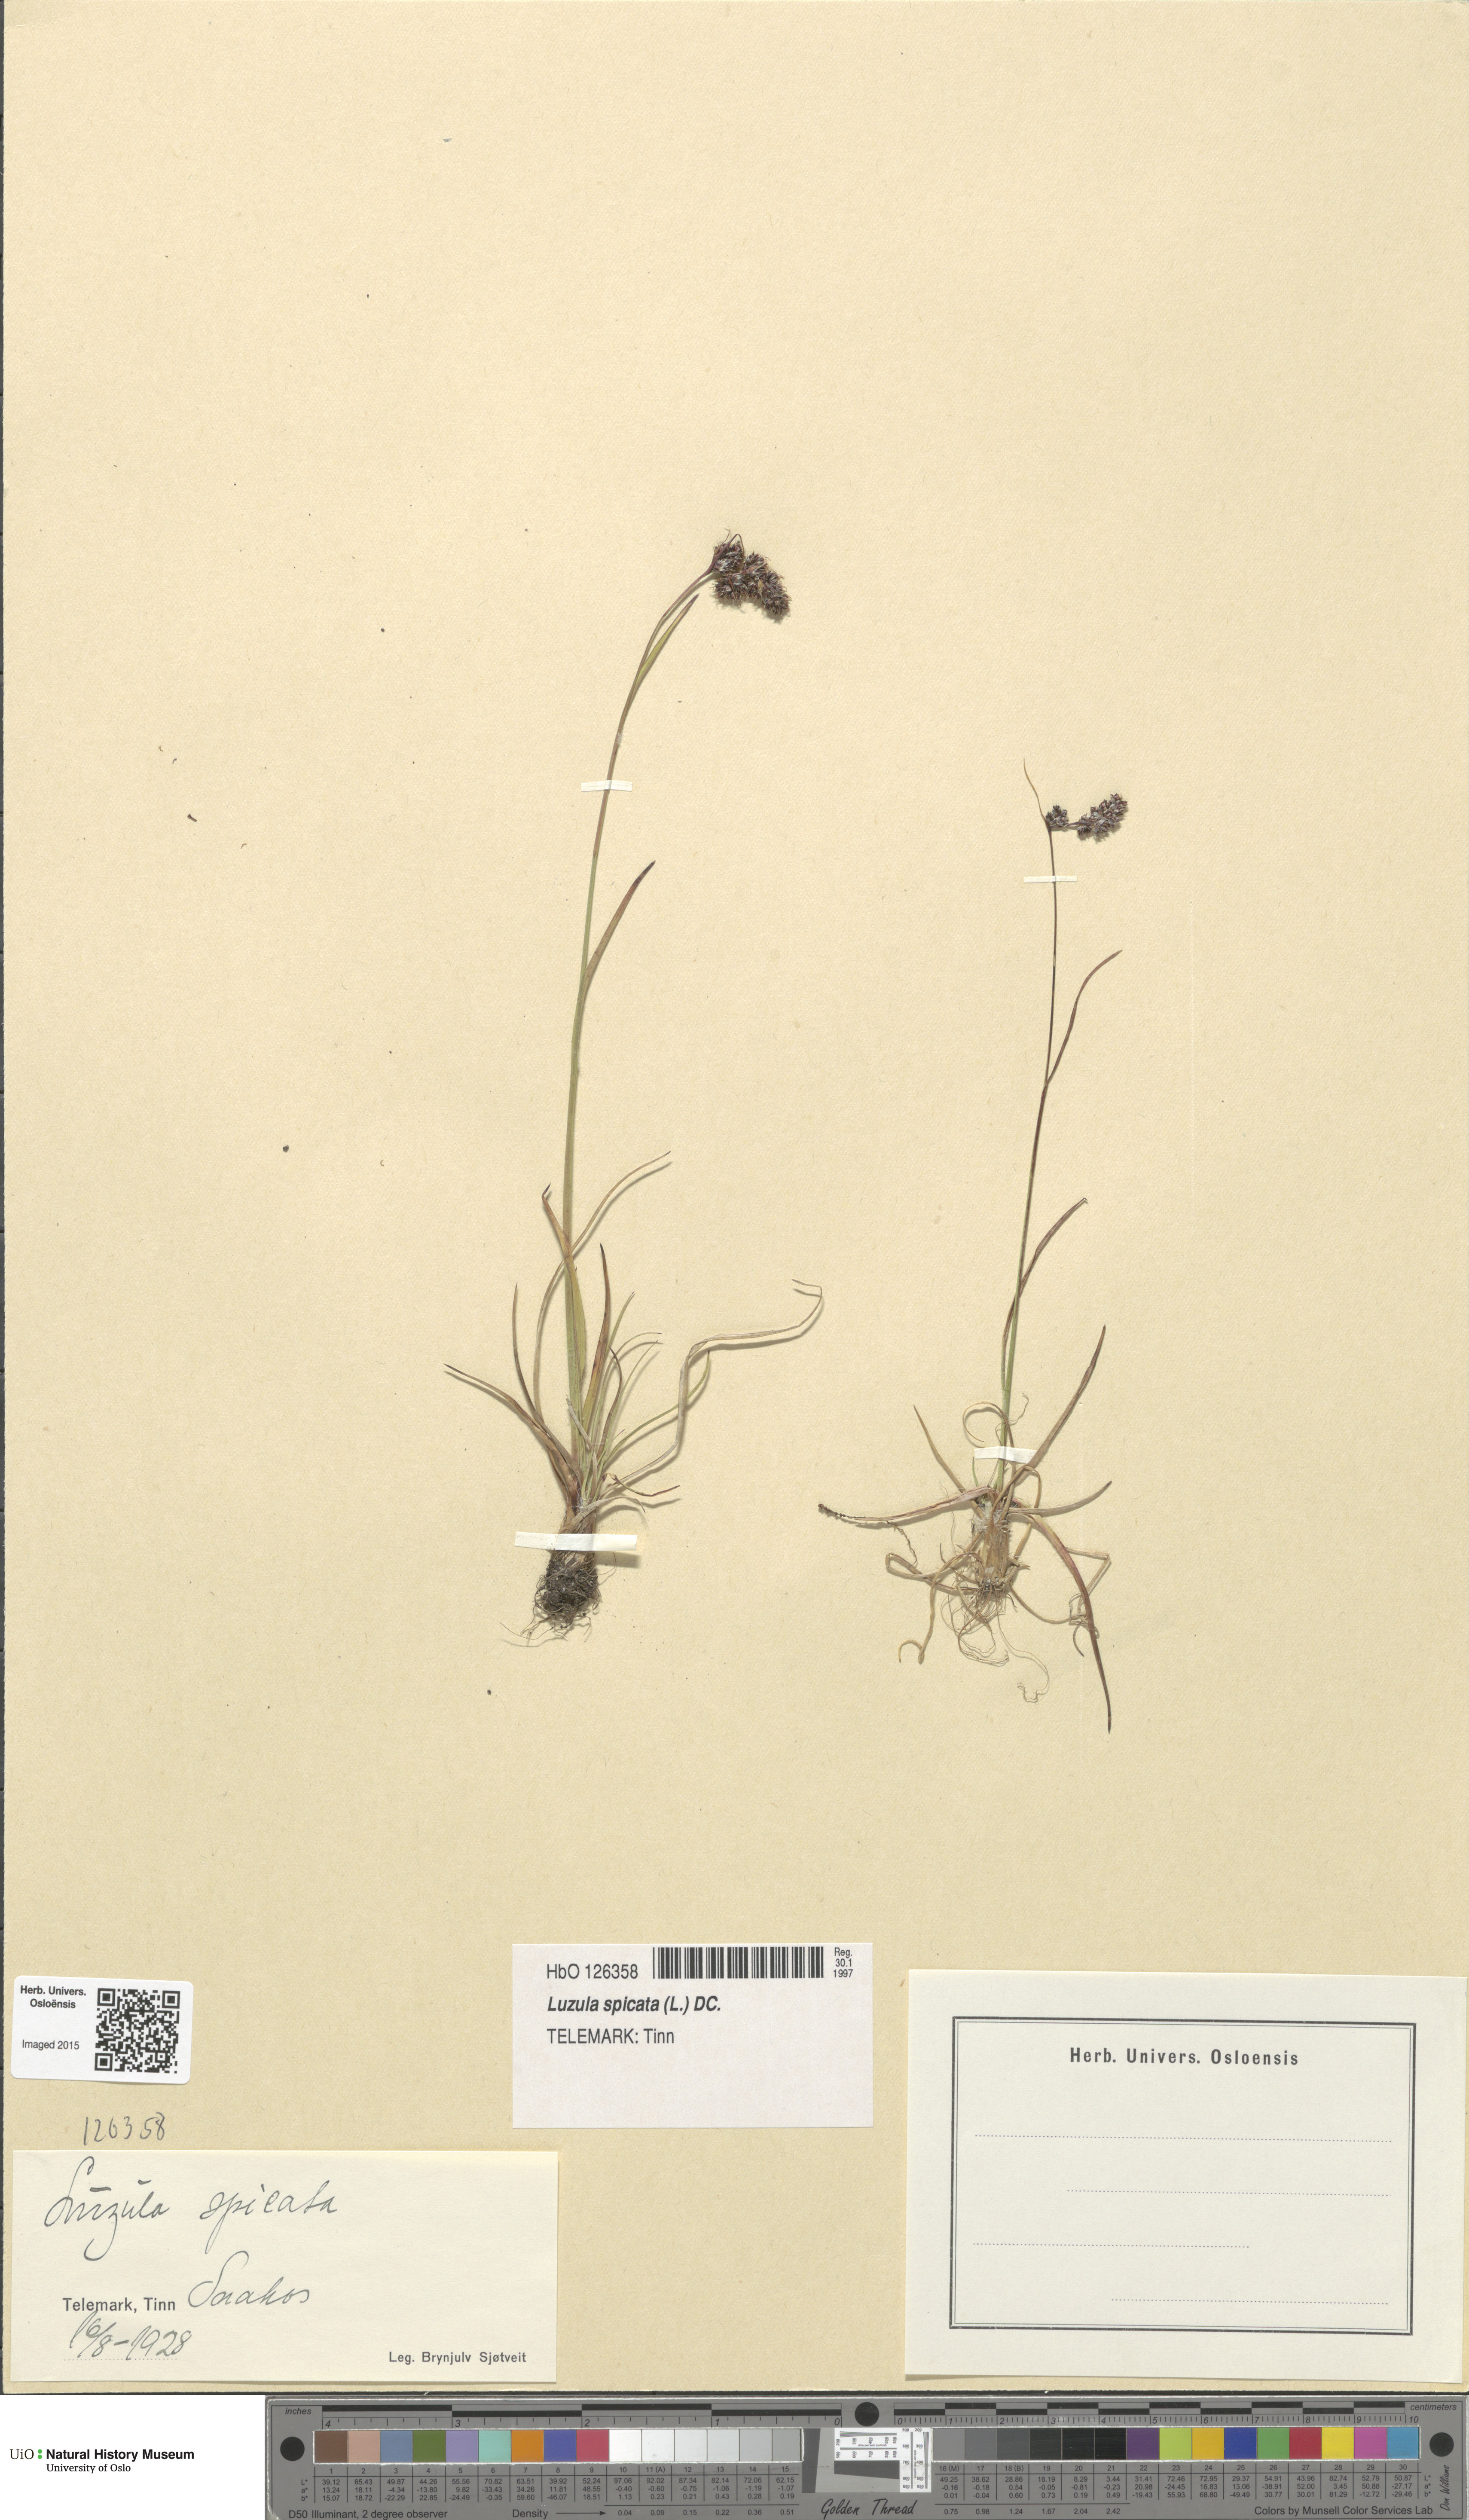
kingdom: Plantae
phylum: Tracheophyta
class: Liliopsida
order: Poales
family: Juncaceae
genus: Luzula
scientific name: Luzula spicata
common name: Spiked wood-rush
